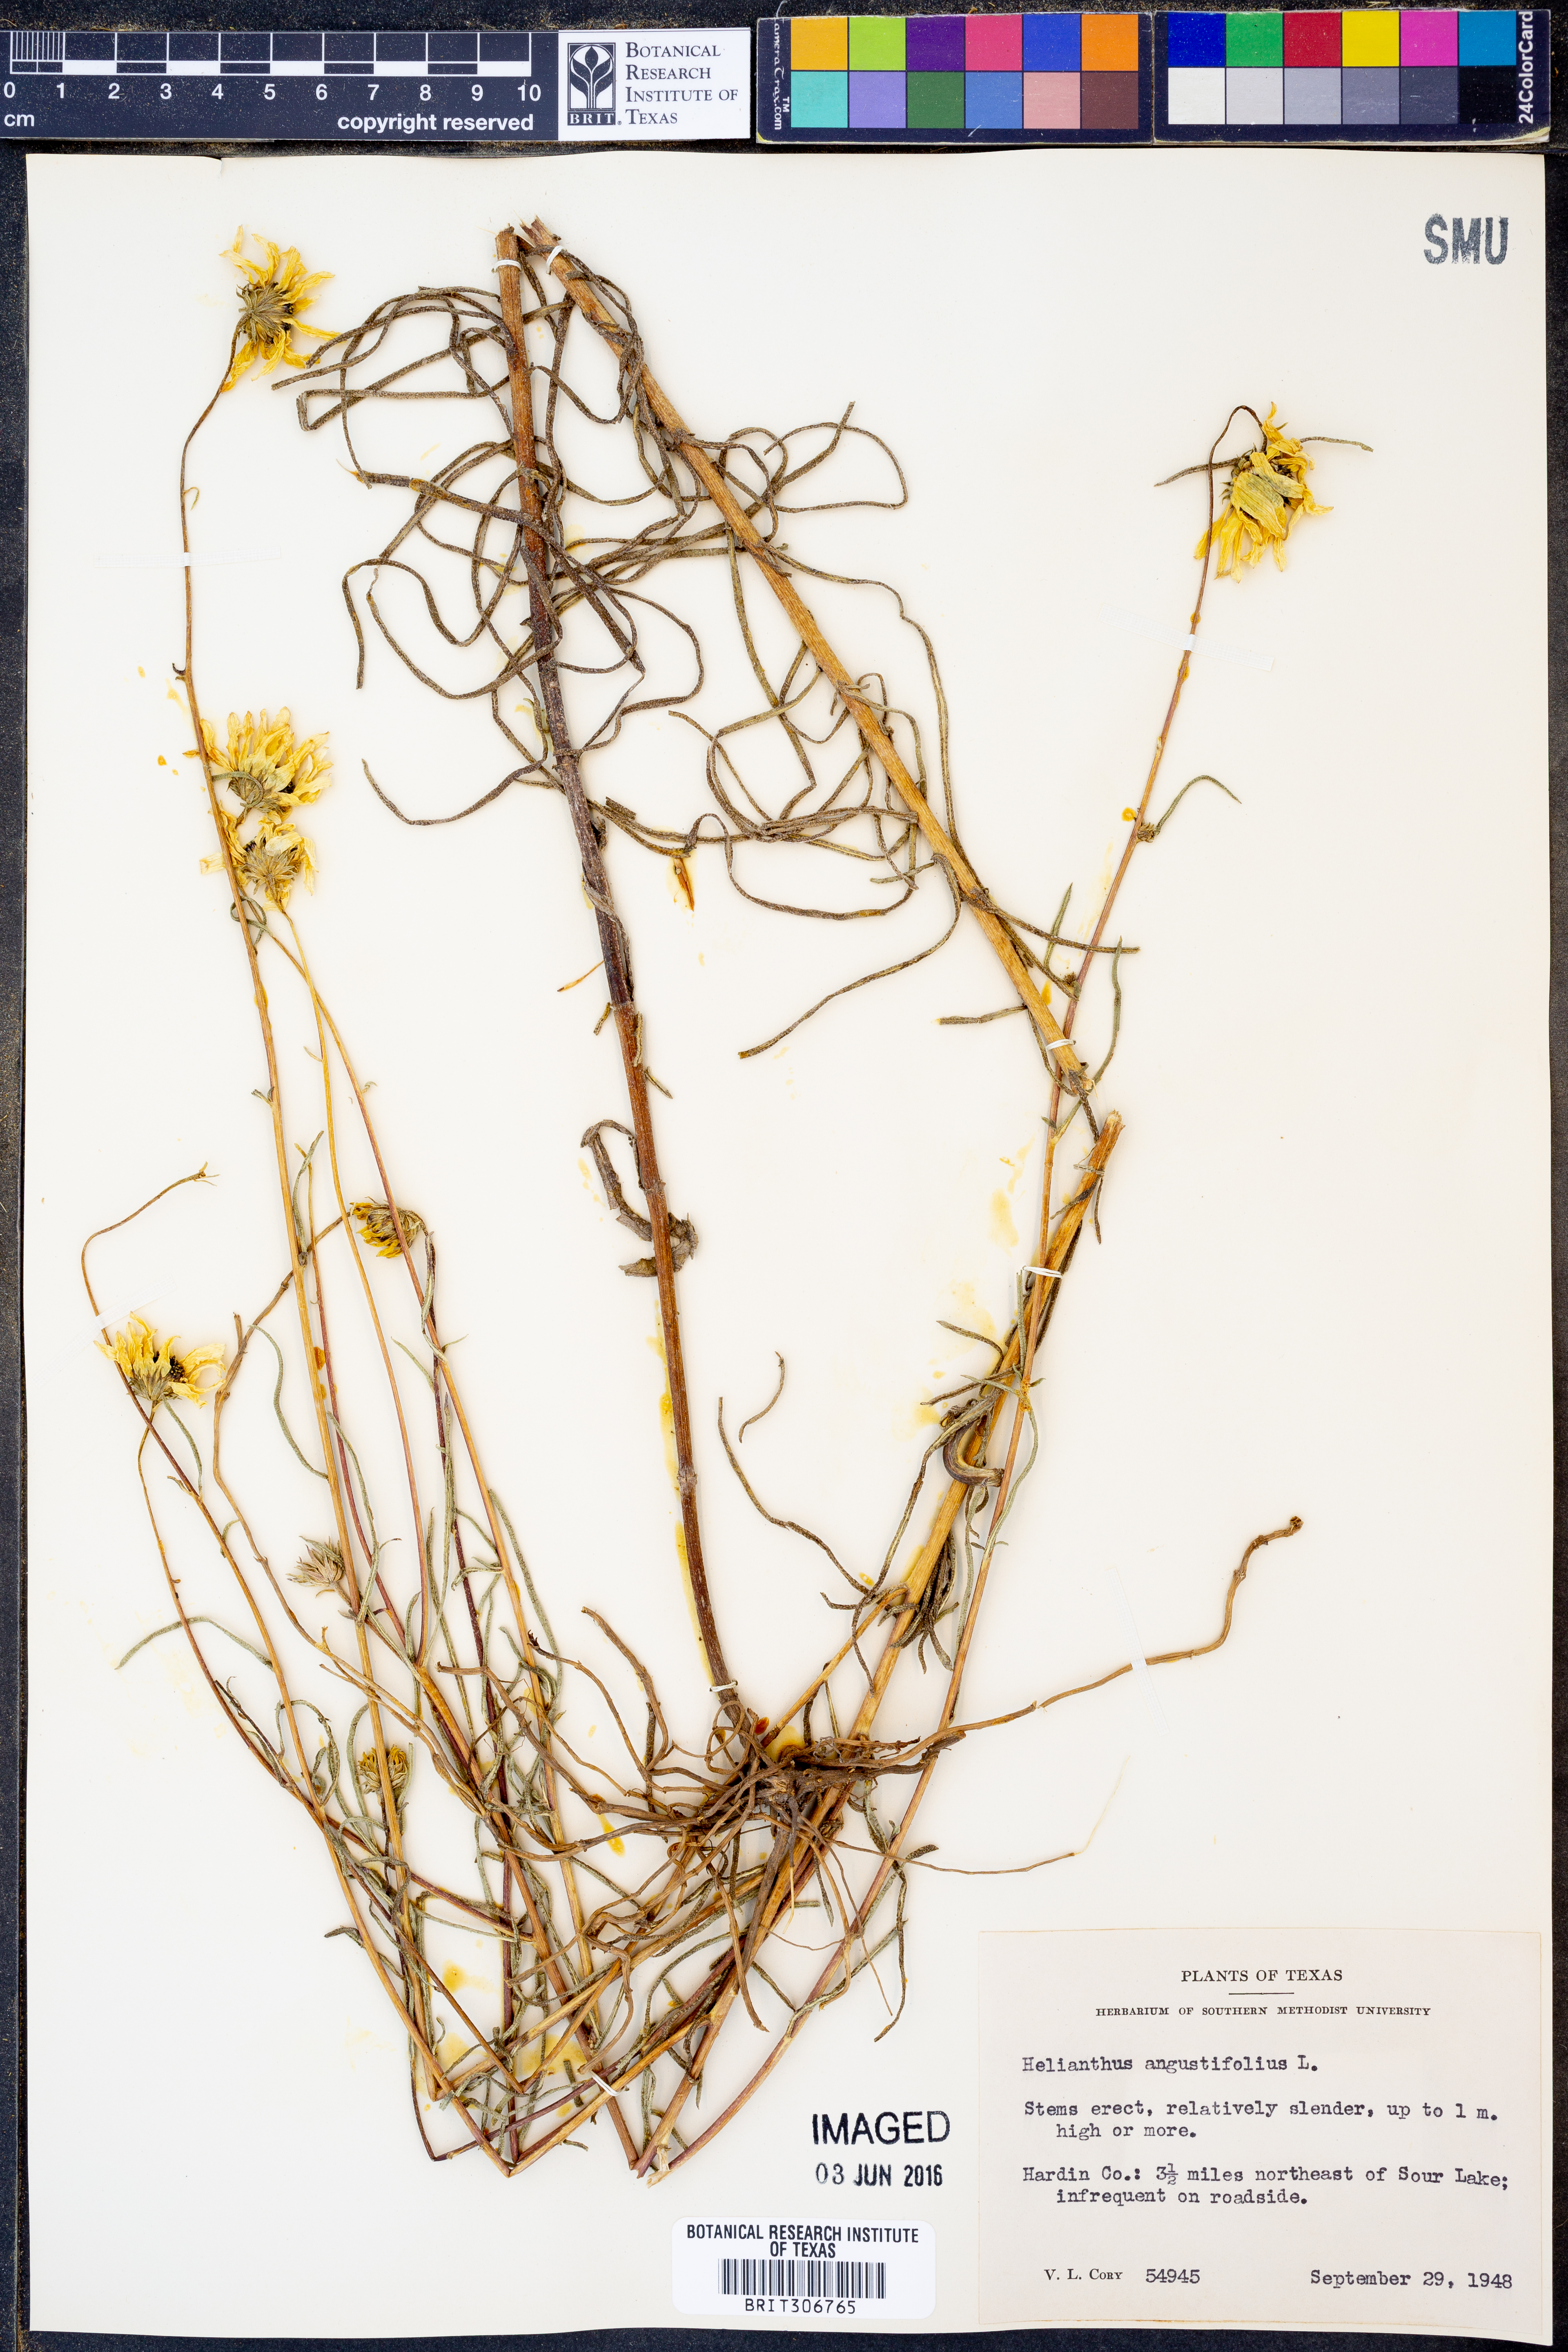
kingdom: Plantae
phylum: Tracheophyta
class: Magnoliopsida
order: Asterales
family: Asteraceae
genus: Helianthus
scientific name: Helianthus angustifolius
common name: Swamp sunflower
